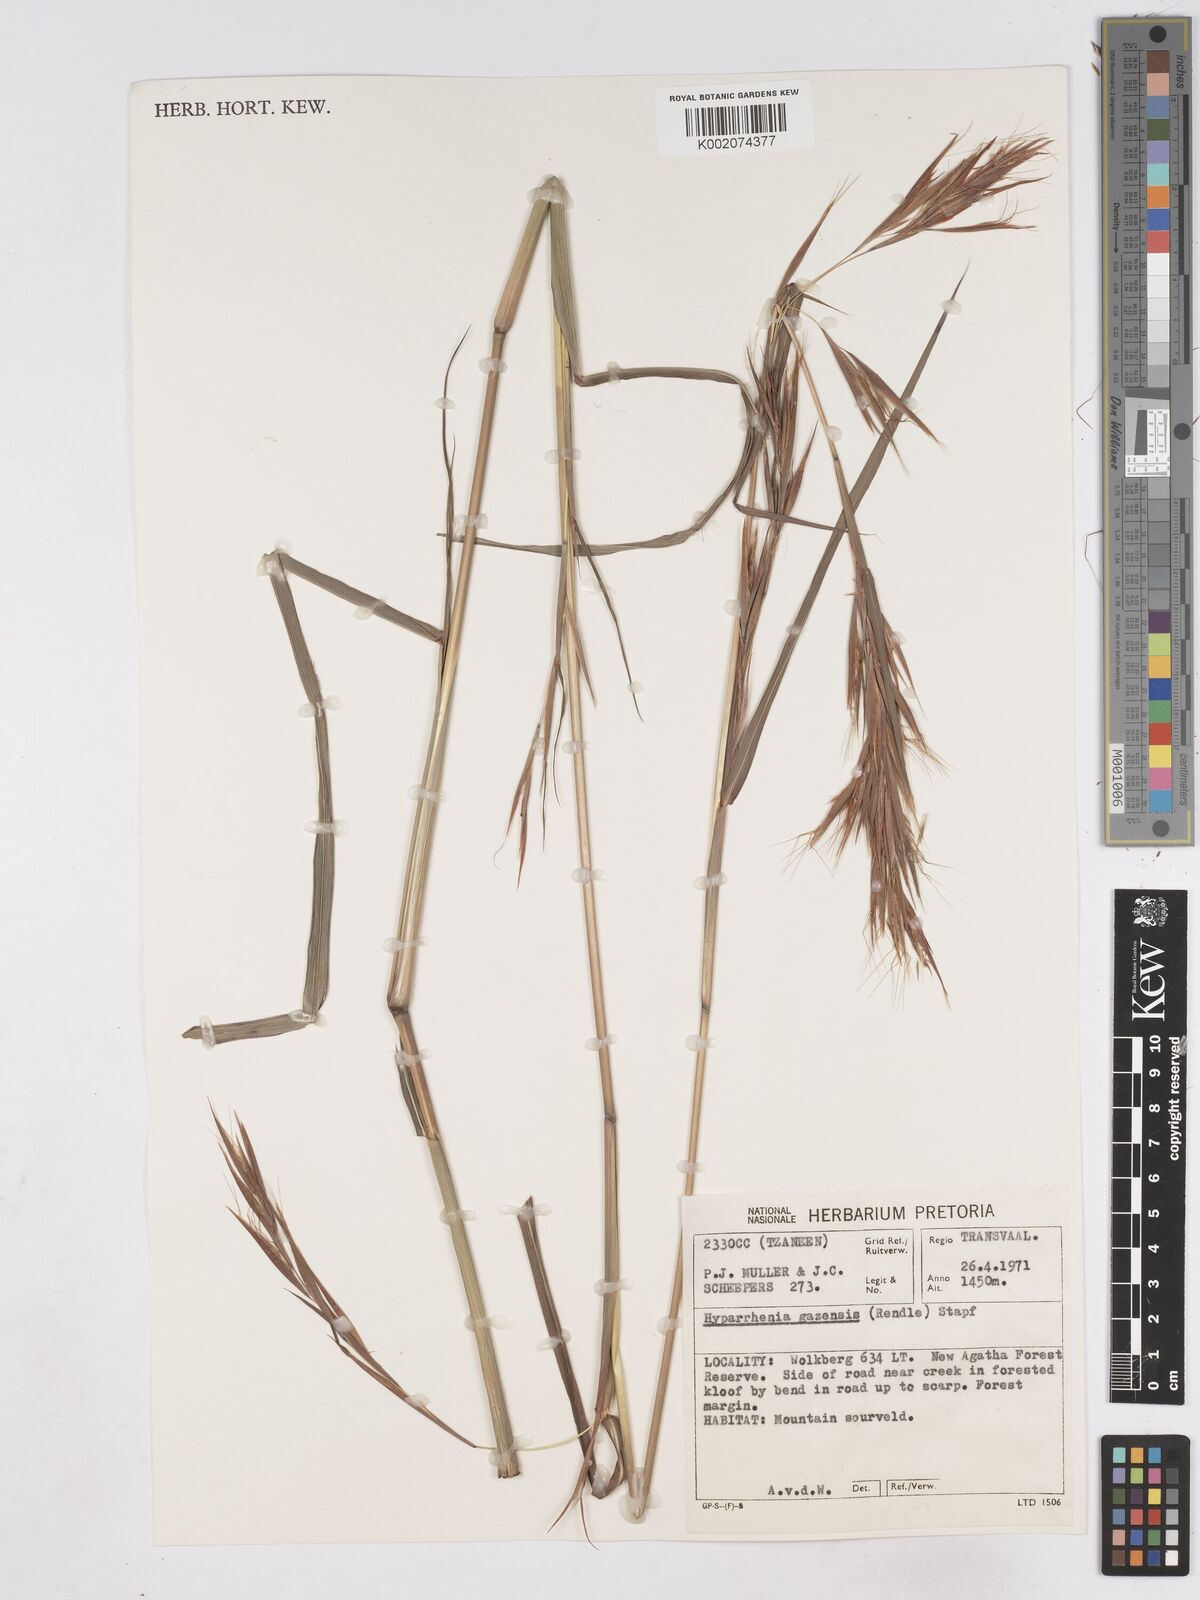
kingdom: Plantae
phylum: Tracheophyta
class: Liliopsida
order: Poales
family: Poaceae
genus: Hyparrhenia
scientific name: Hyparrhenia gazensis
